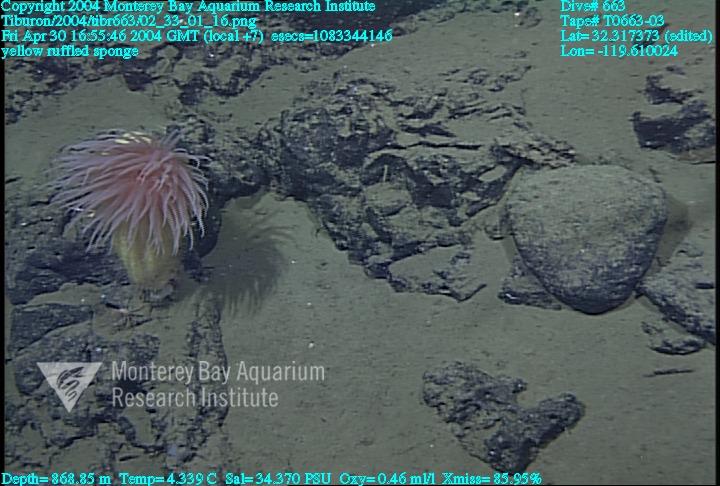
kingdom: Animalia
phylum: Porifera
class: Hexactinellida
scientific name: Hexactinellida
